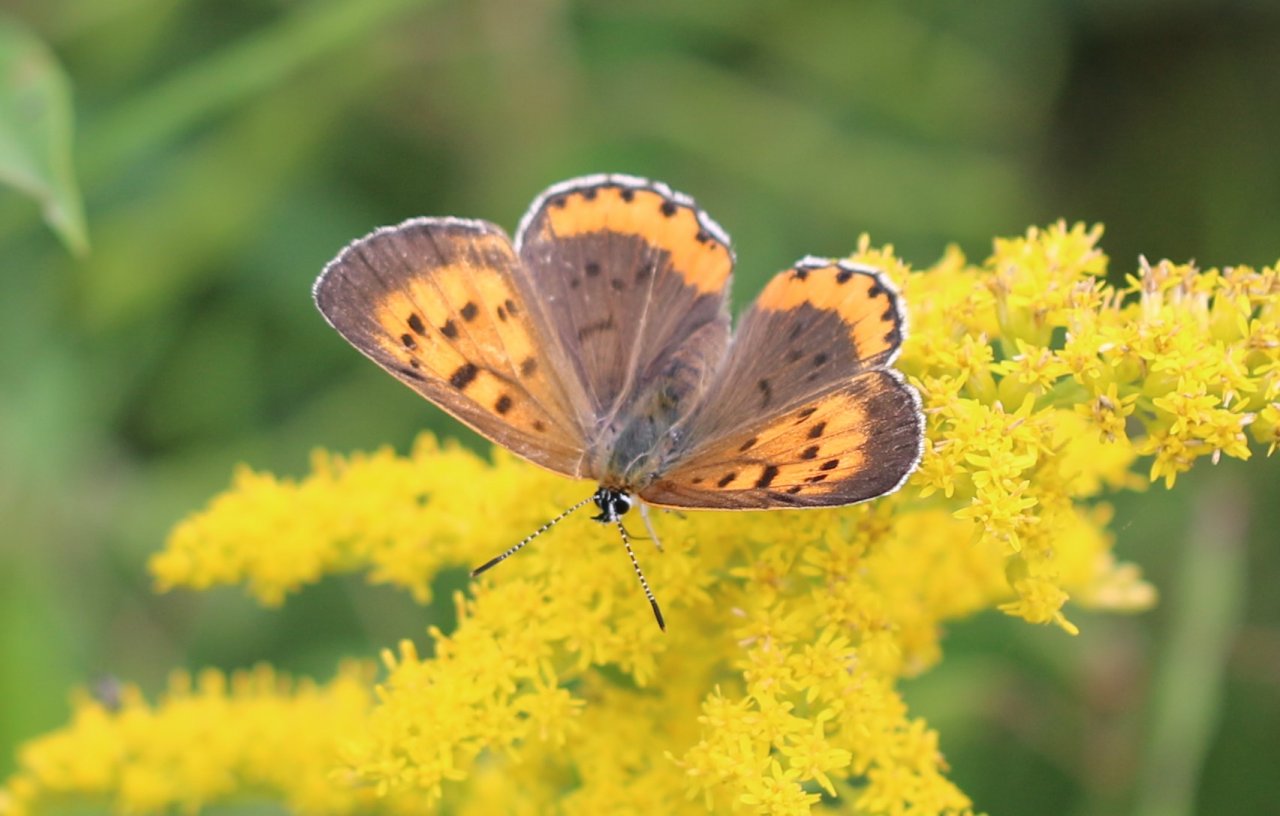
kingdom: Animalia
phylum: Arthropoda
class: Insecta
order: Lepidoptera
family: Sesiidae
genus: Sesia
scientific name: Sesia Lycaena hyllus
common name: Bronze Copper
